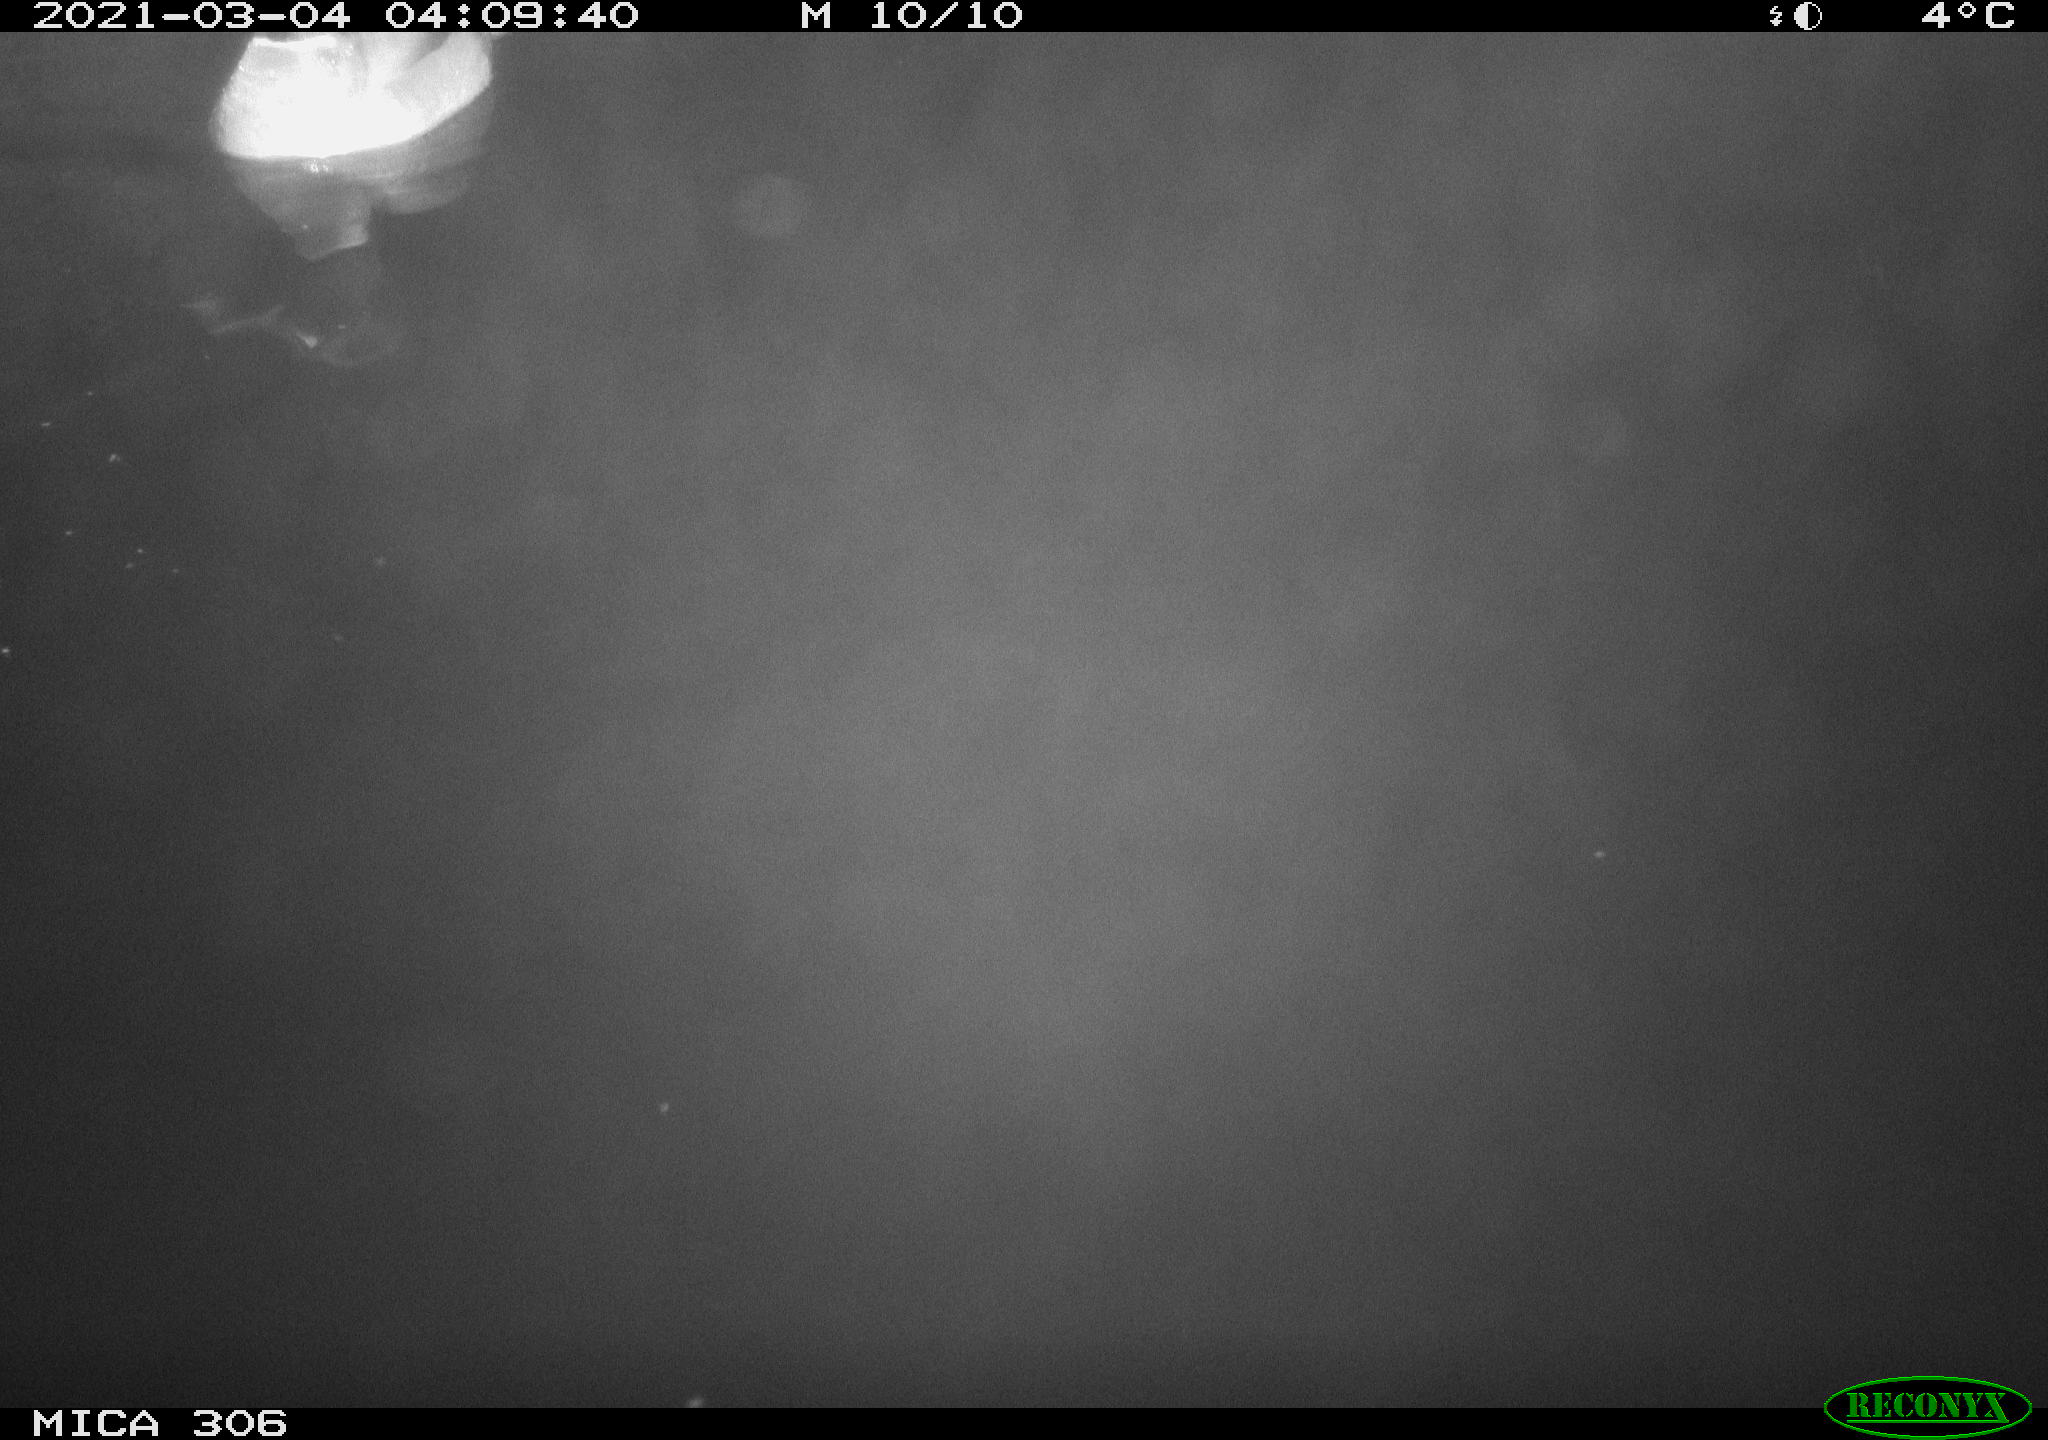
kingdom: Animalia
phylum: Chordata
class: Mammalia
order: Rodentia
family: Cricetidae
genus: Ondatra
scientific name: Ondatra zibethicus
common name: Muskrat
